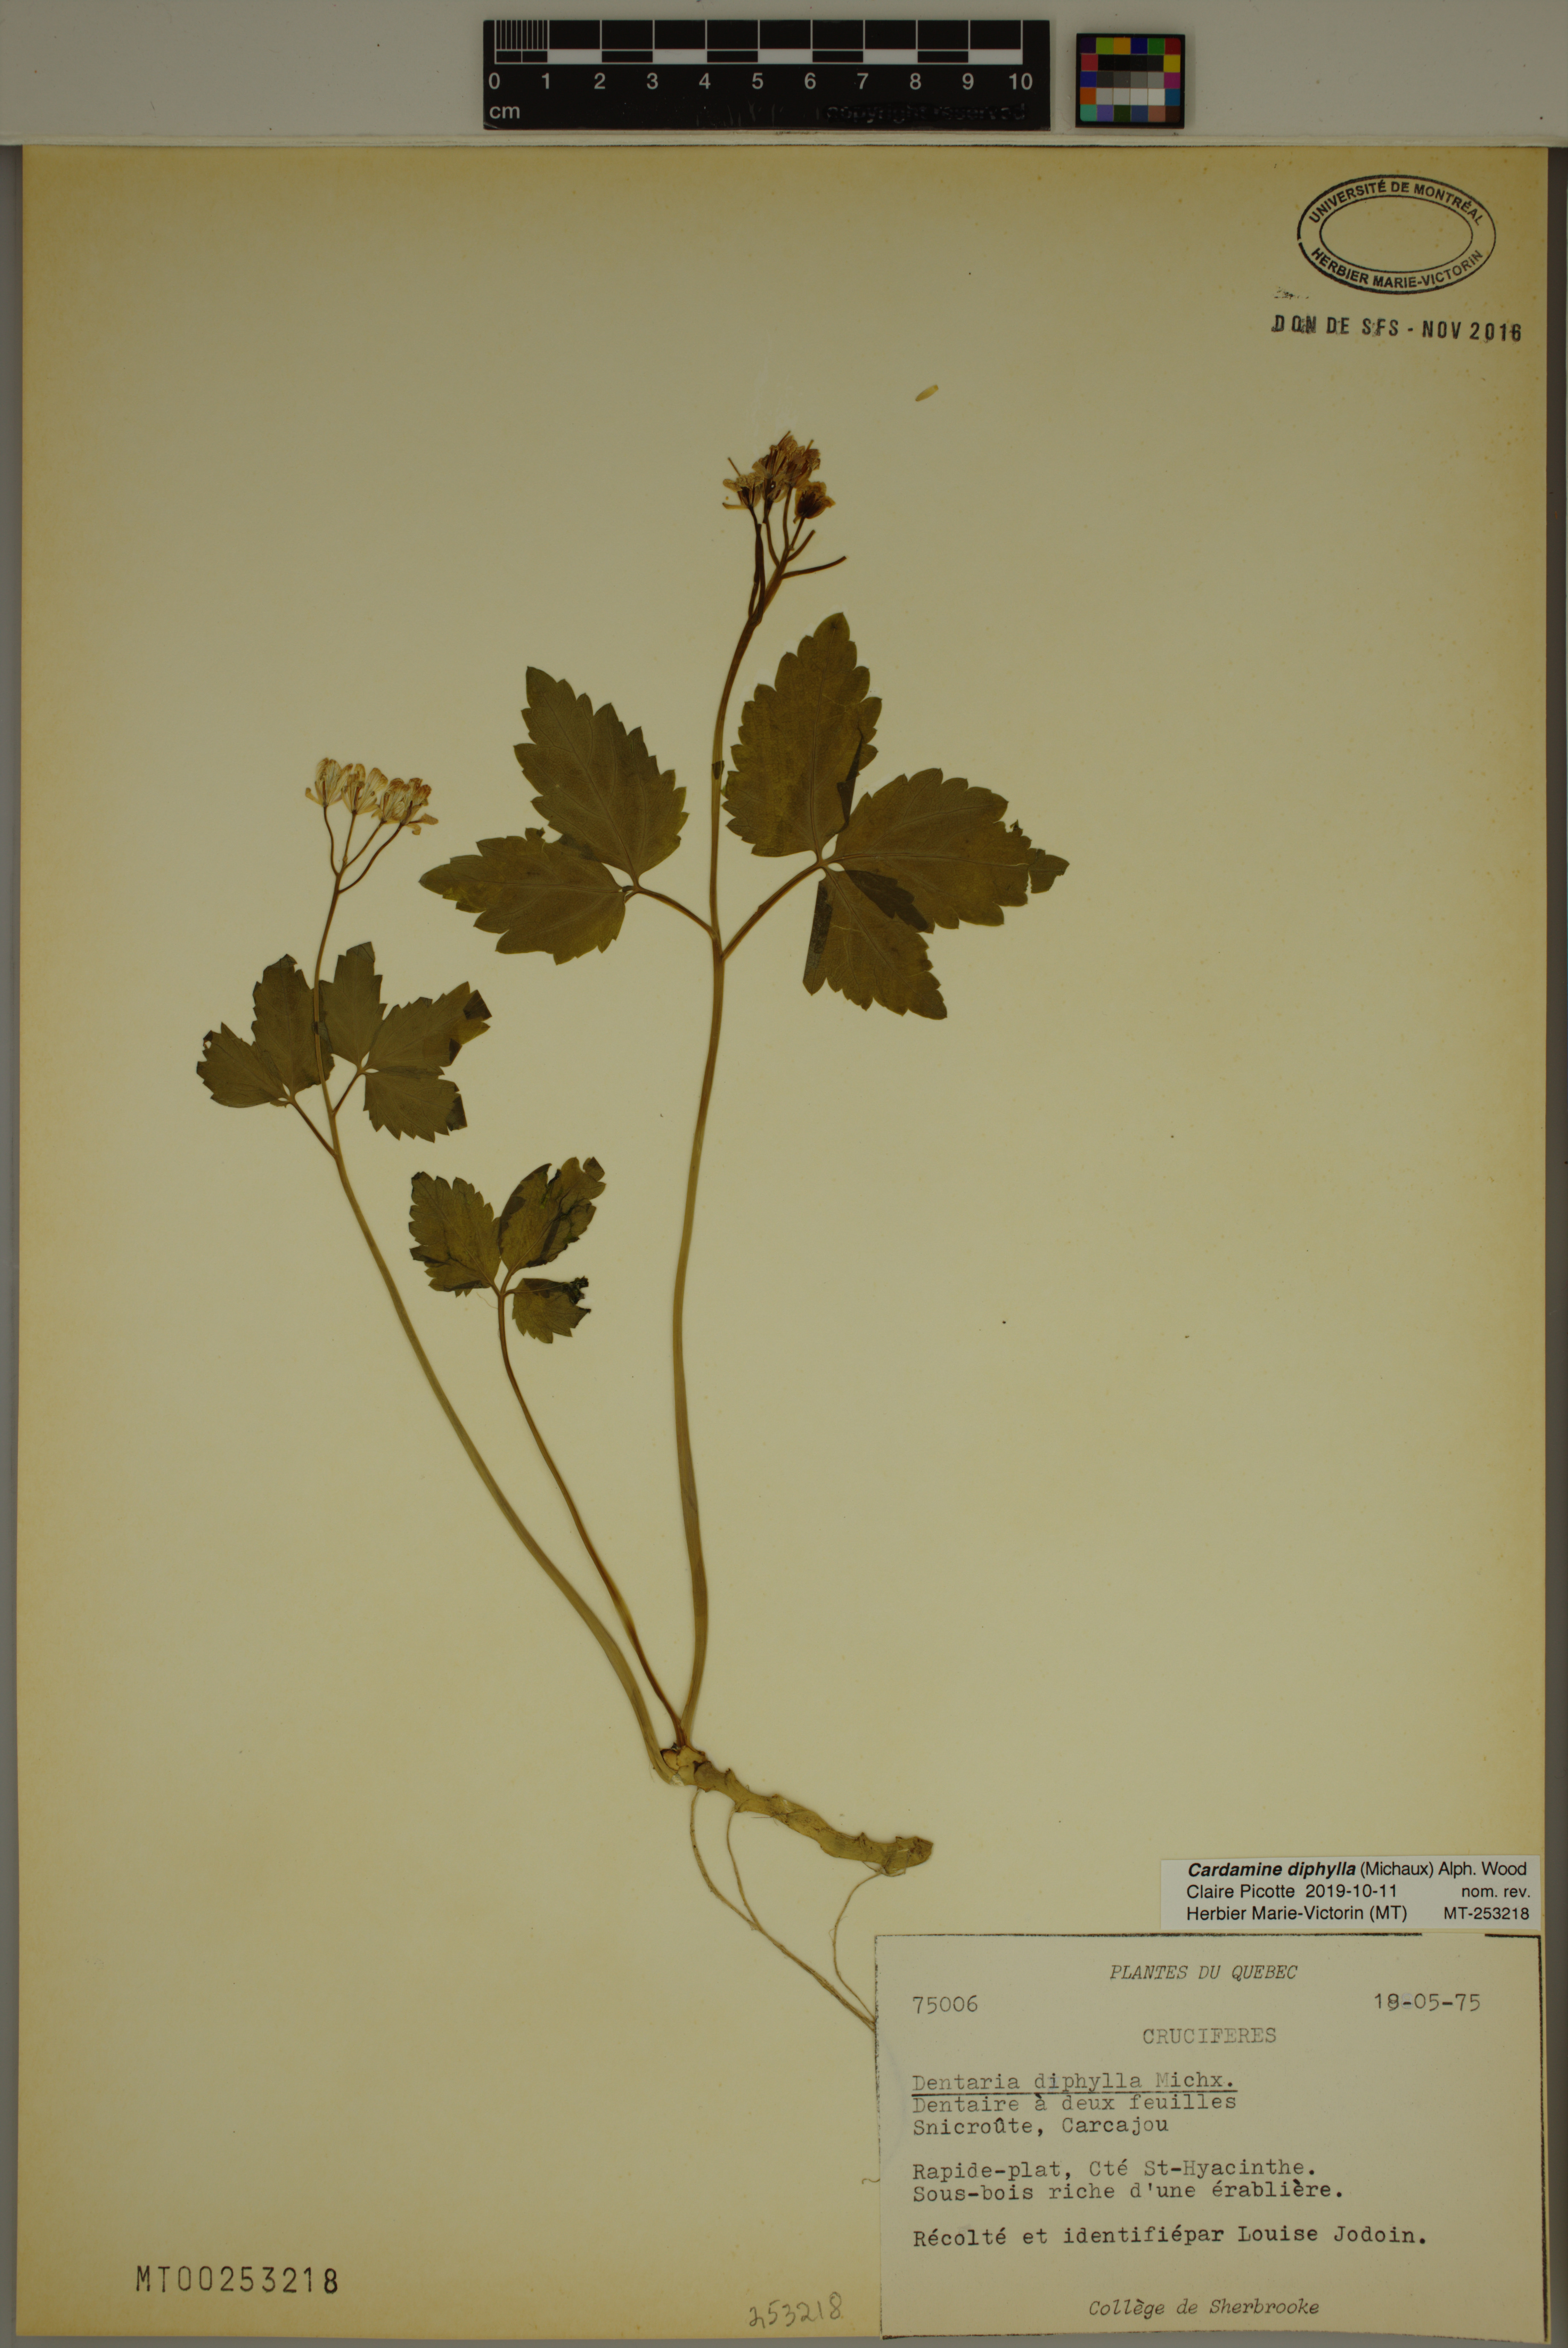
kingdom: Plantae
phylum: Tracheophyta
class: Magnoliopsida
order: Brassicales
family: Brassicaceae
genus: Cardamine
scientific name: Cardamine diphylla
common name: Broad-leaved toothwort
